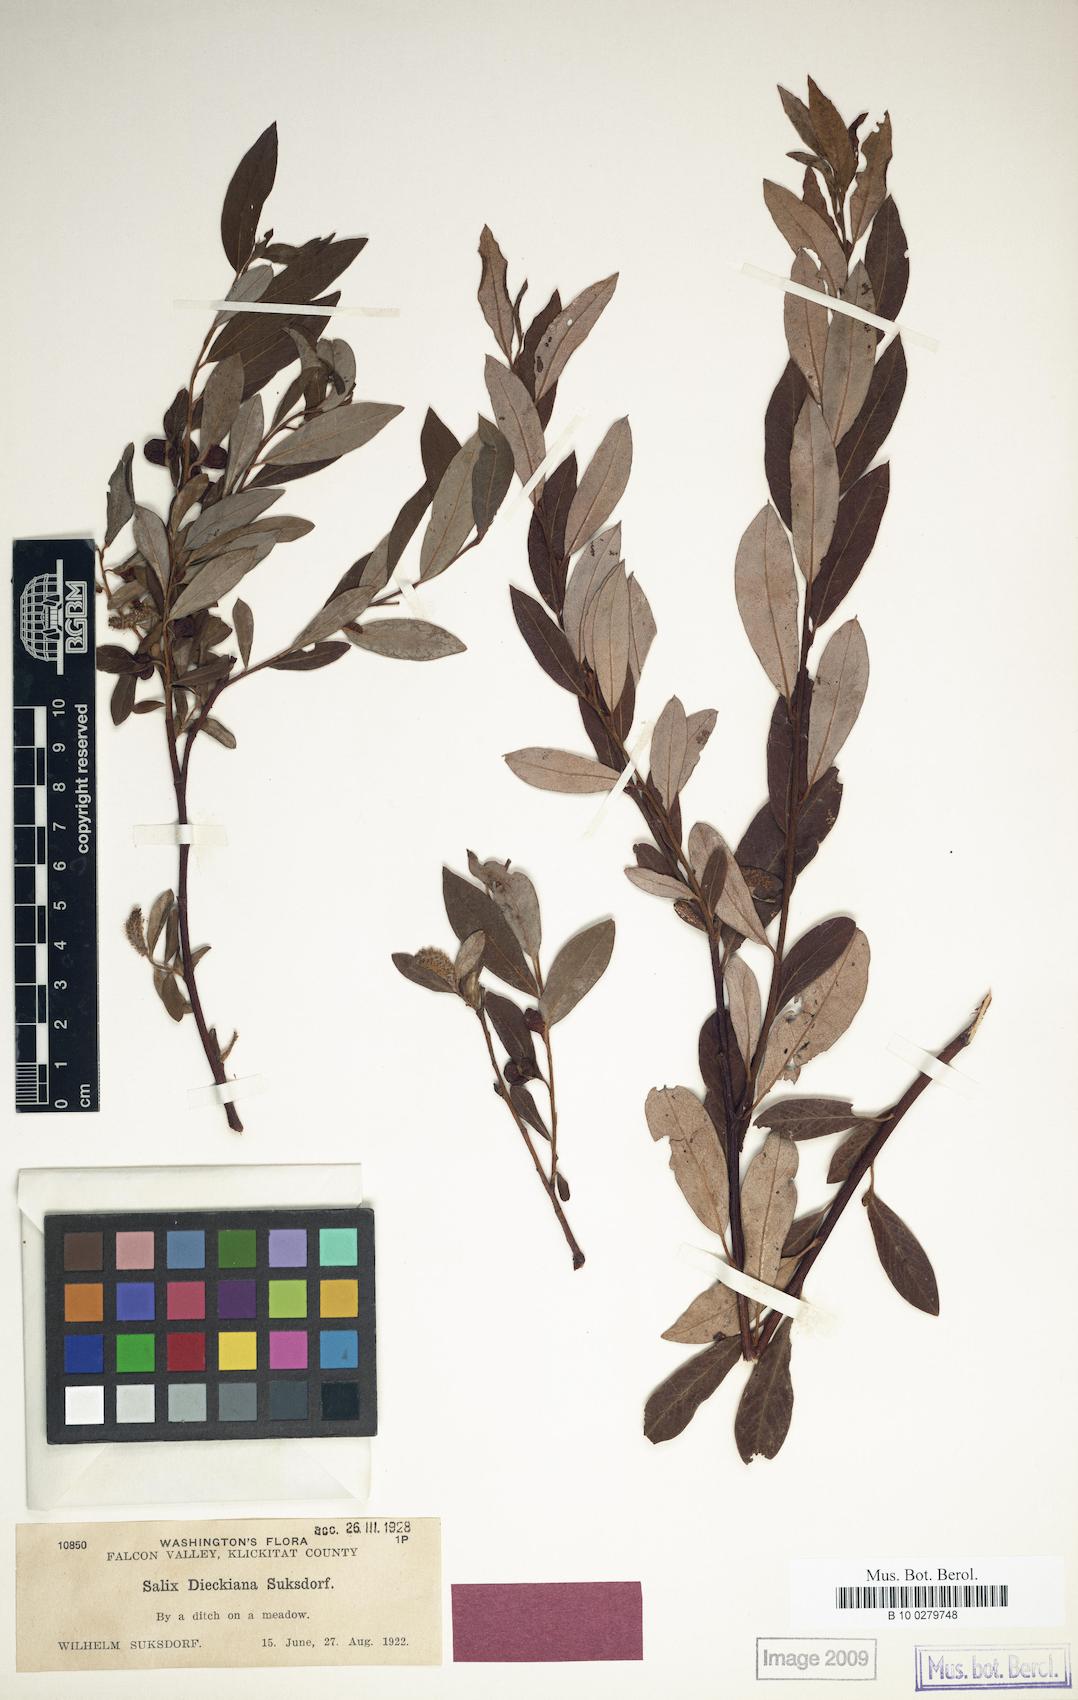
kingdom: Plantae
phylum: Tracheophyta
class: Magnoliopsida
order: Malpighiales
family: Salicaceae
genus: Salix
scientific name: Salix dieckiana
